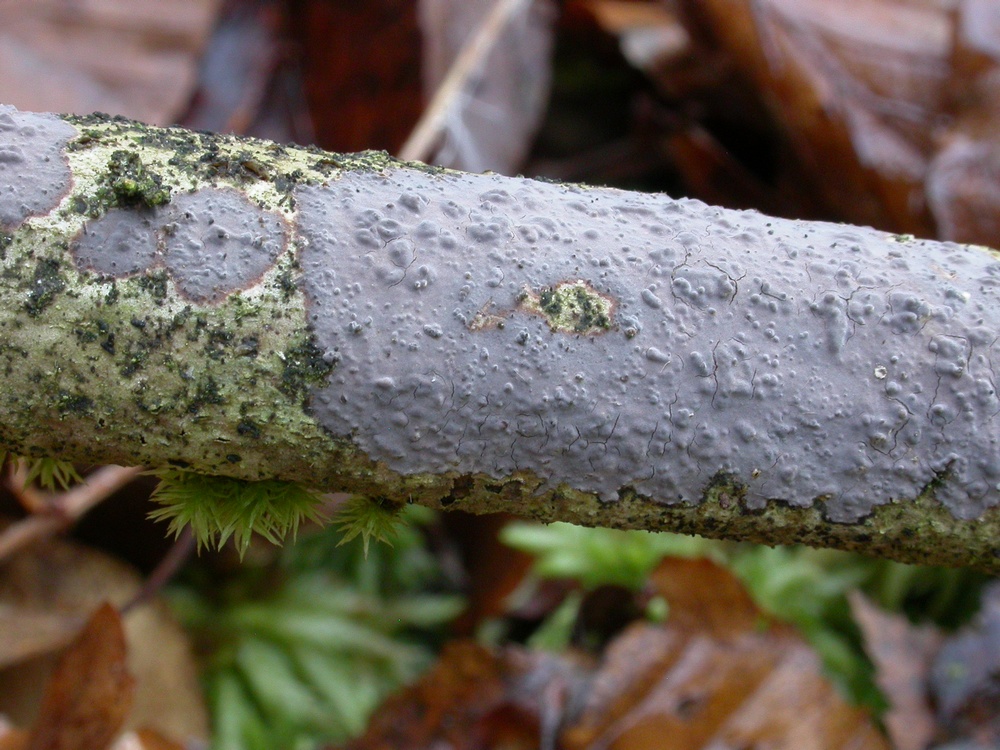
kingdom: Fungi
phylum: Basidiomycota
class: Agaricomycetes
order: Russulales
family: Peniophoraceae
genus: Peniophora
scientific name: Peniophora limitata
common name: mørkrandet voksskind
